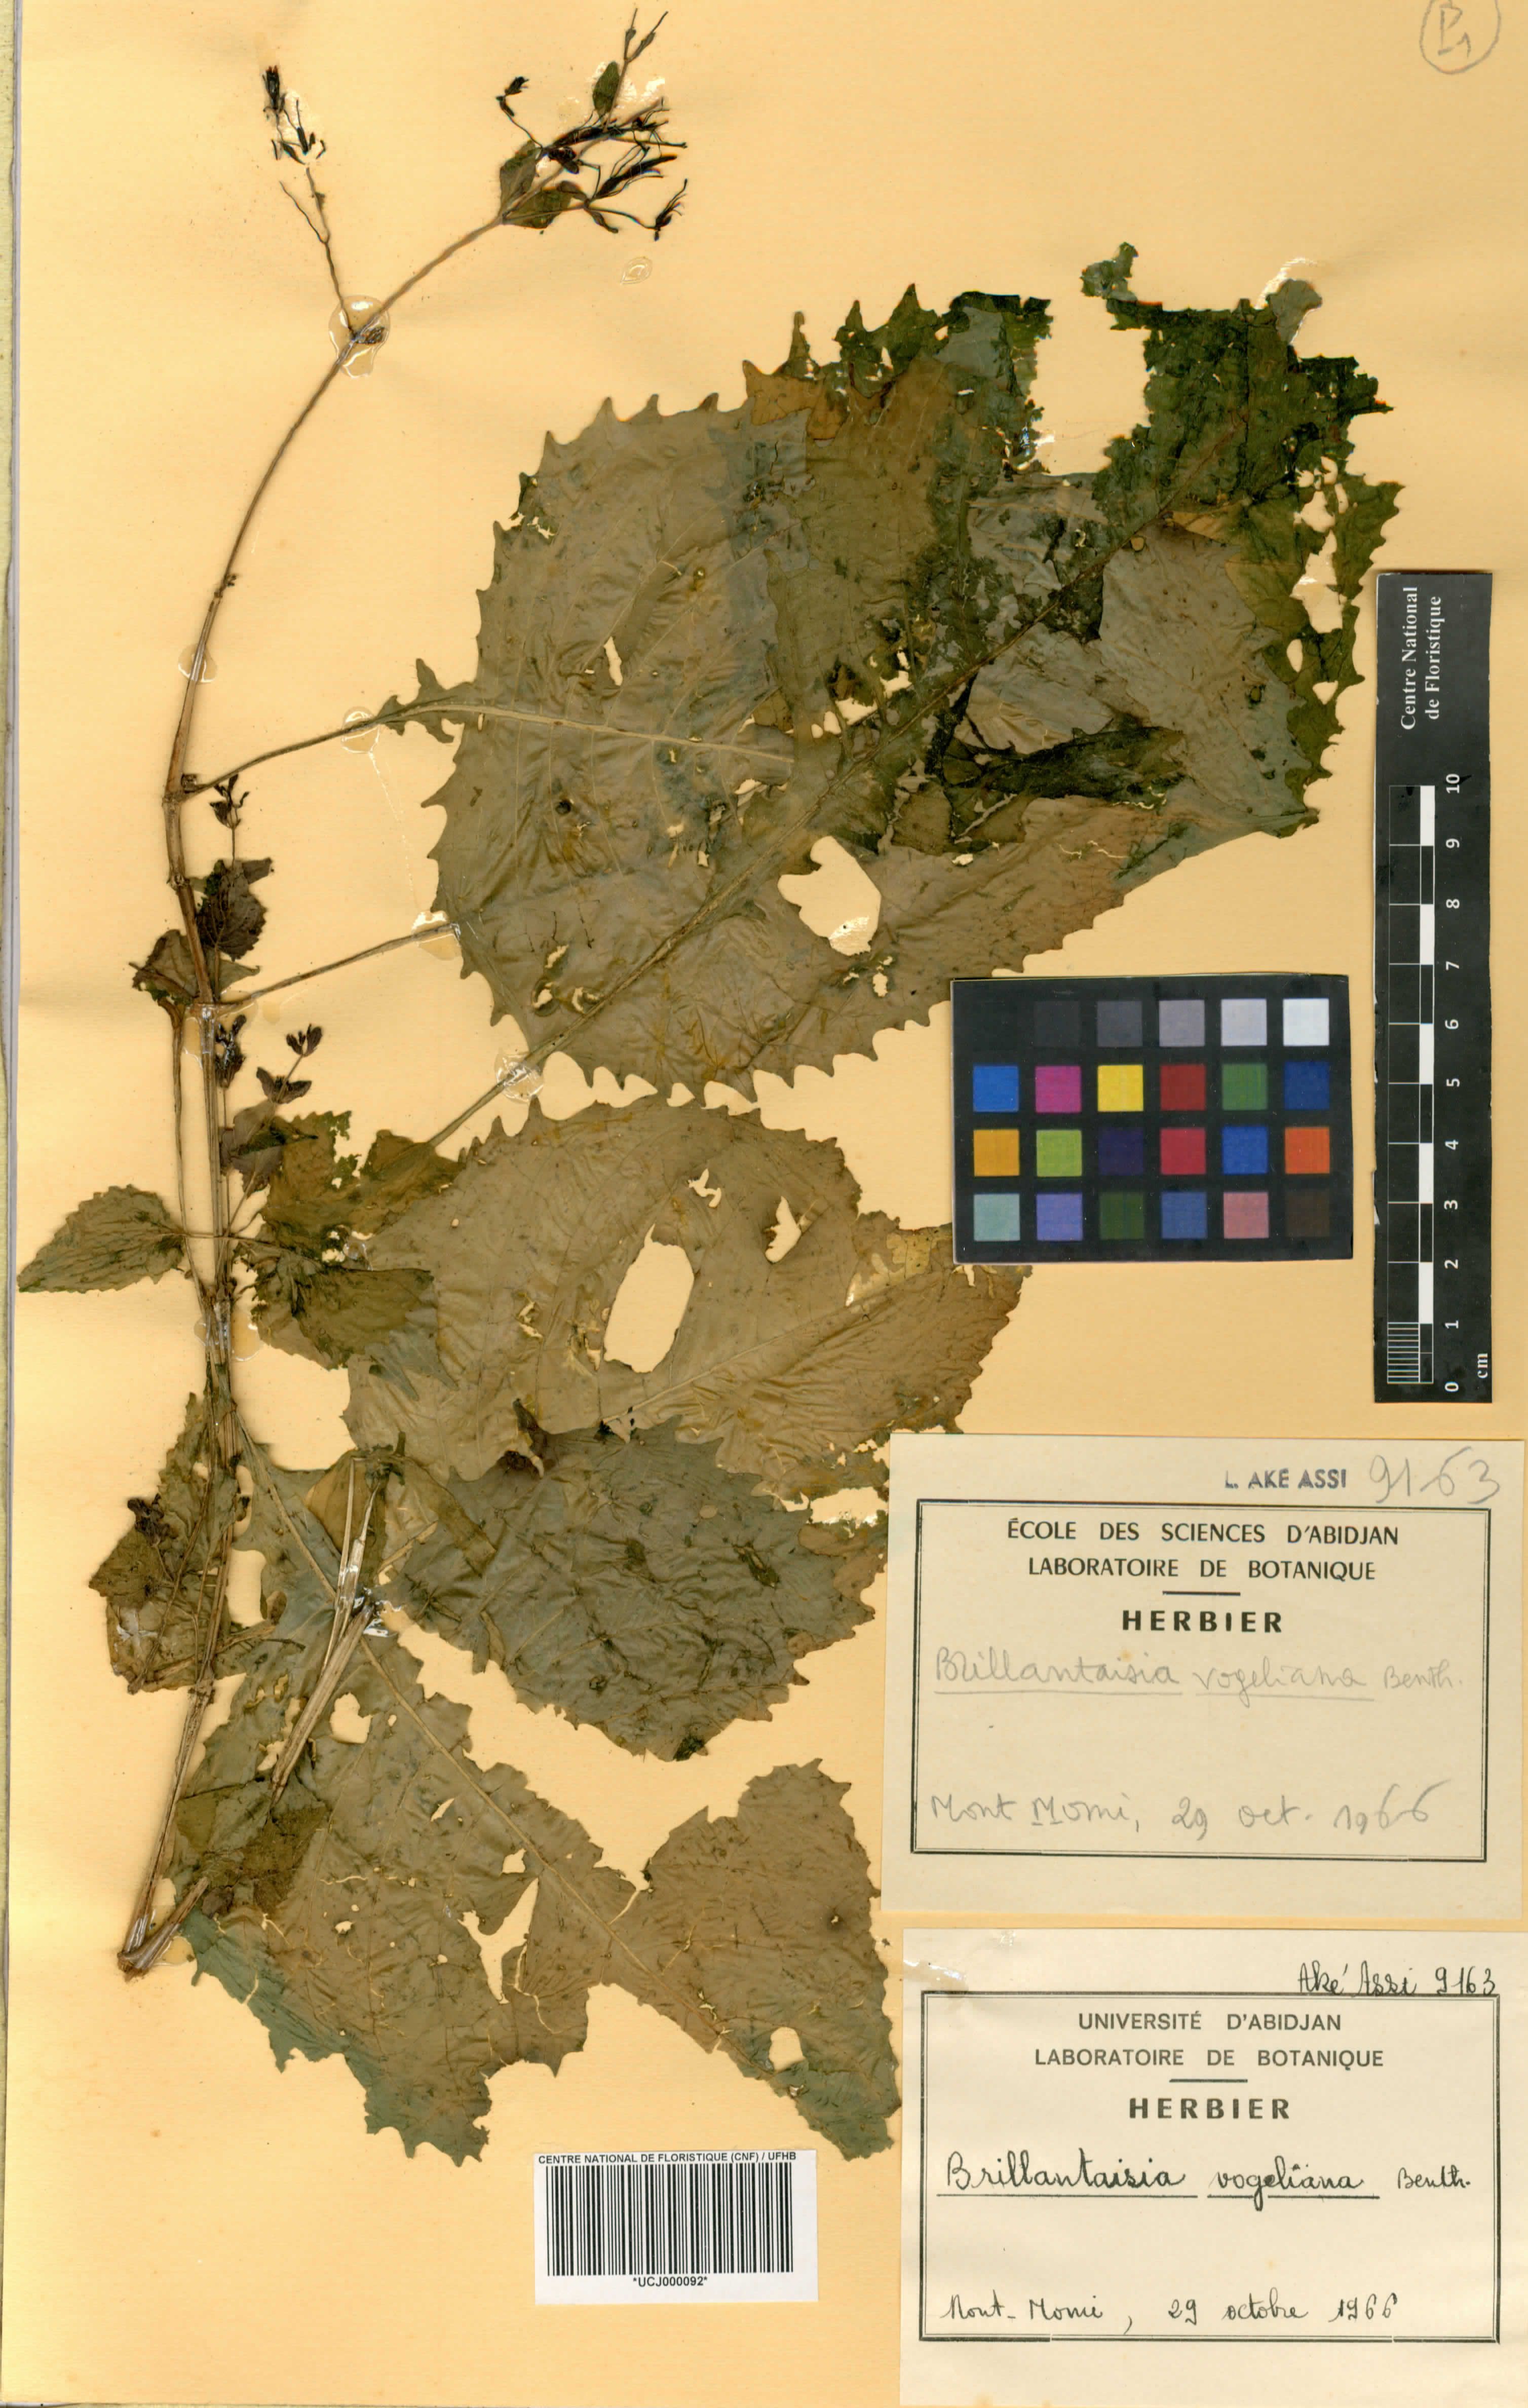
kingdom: Plantae
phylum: Tracheophyta
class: Magnoliopsida
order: Lamiales
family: Acanthaceae
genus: Brillantaisia
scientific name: Brillantaisia vogeliana
